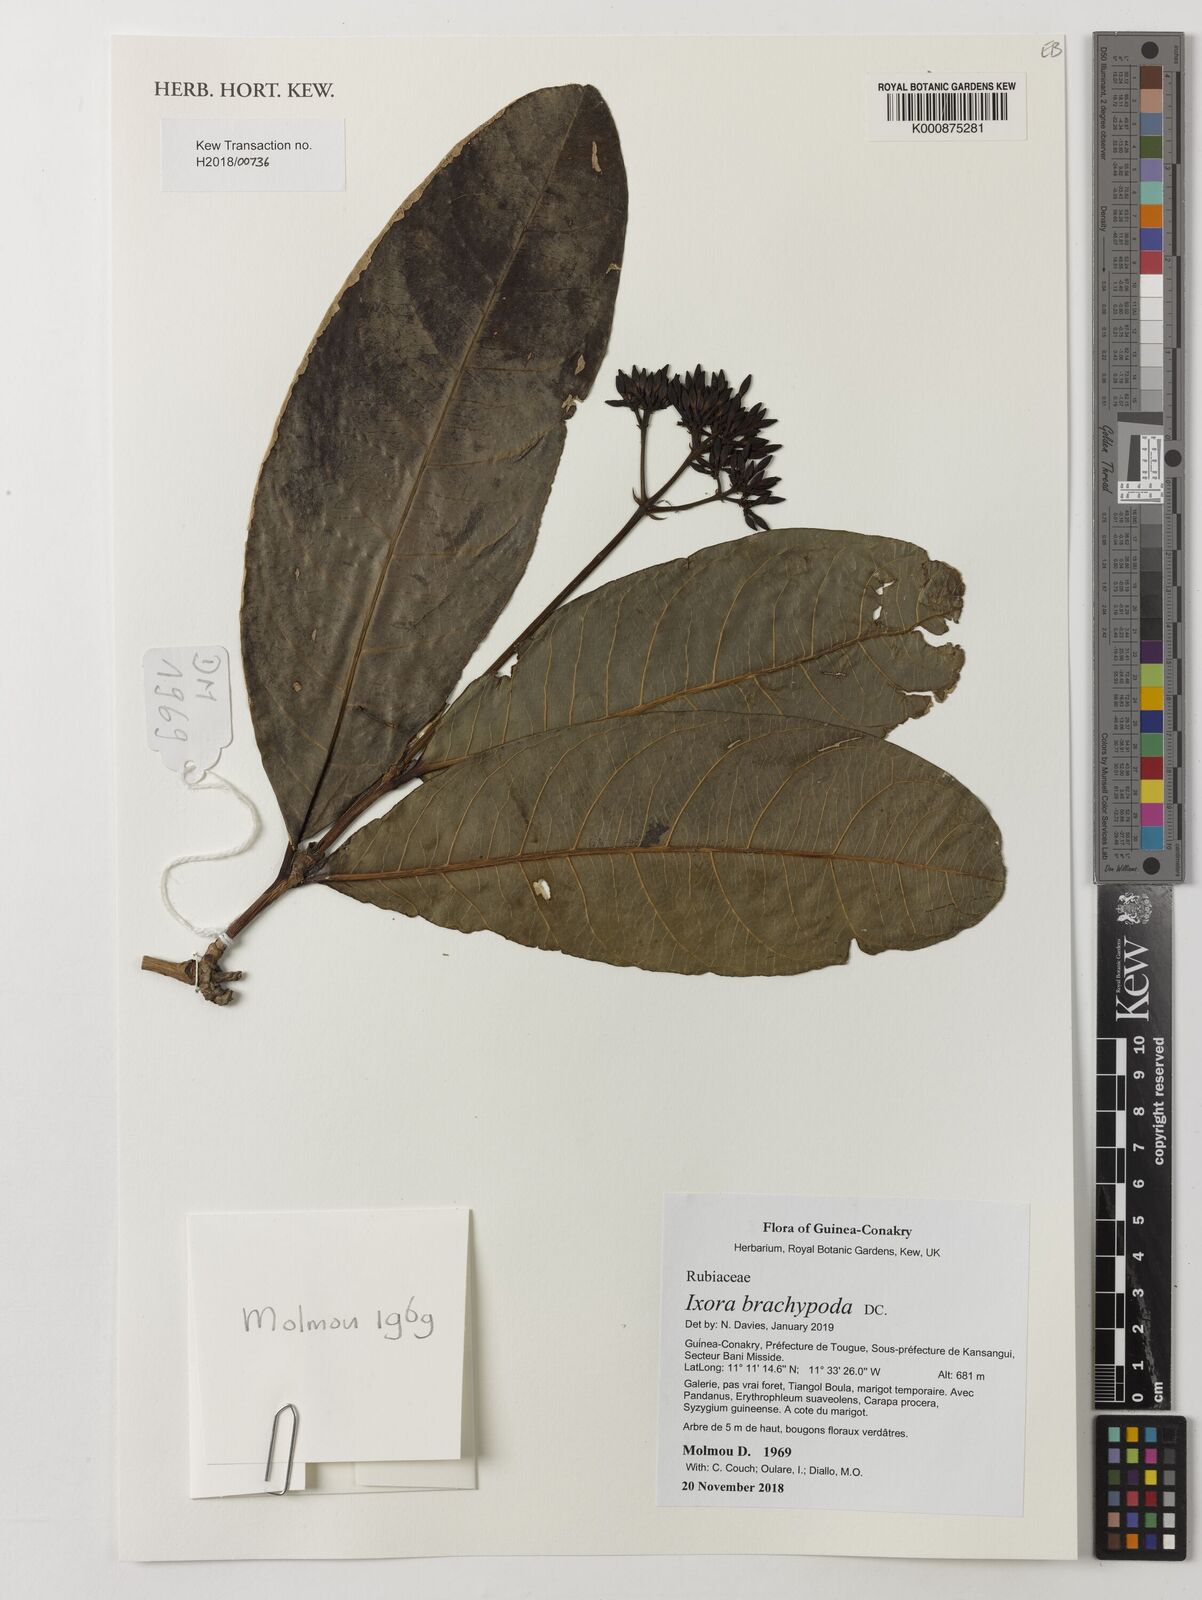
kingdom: Plantae
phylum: Tracheophyta
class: Magnoliopsida
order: Gentianales
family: Rubiaceae
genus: Ixora
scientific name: Ixora brachypoda
